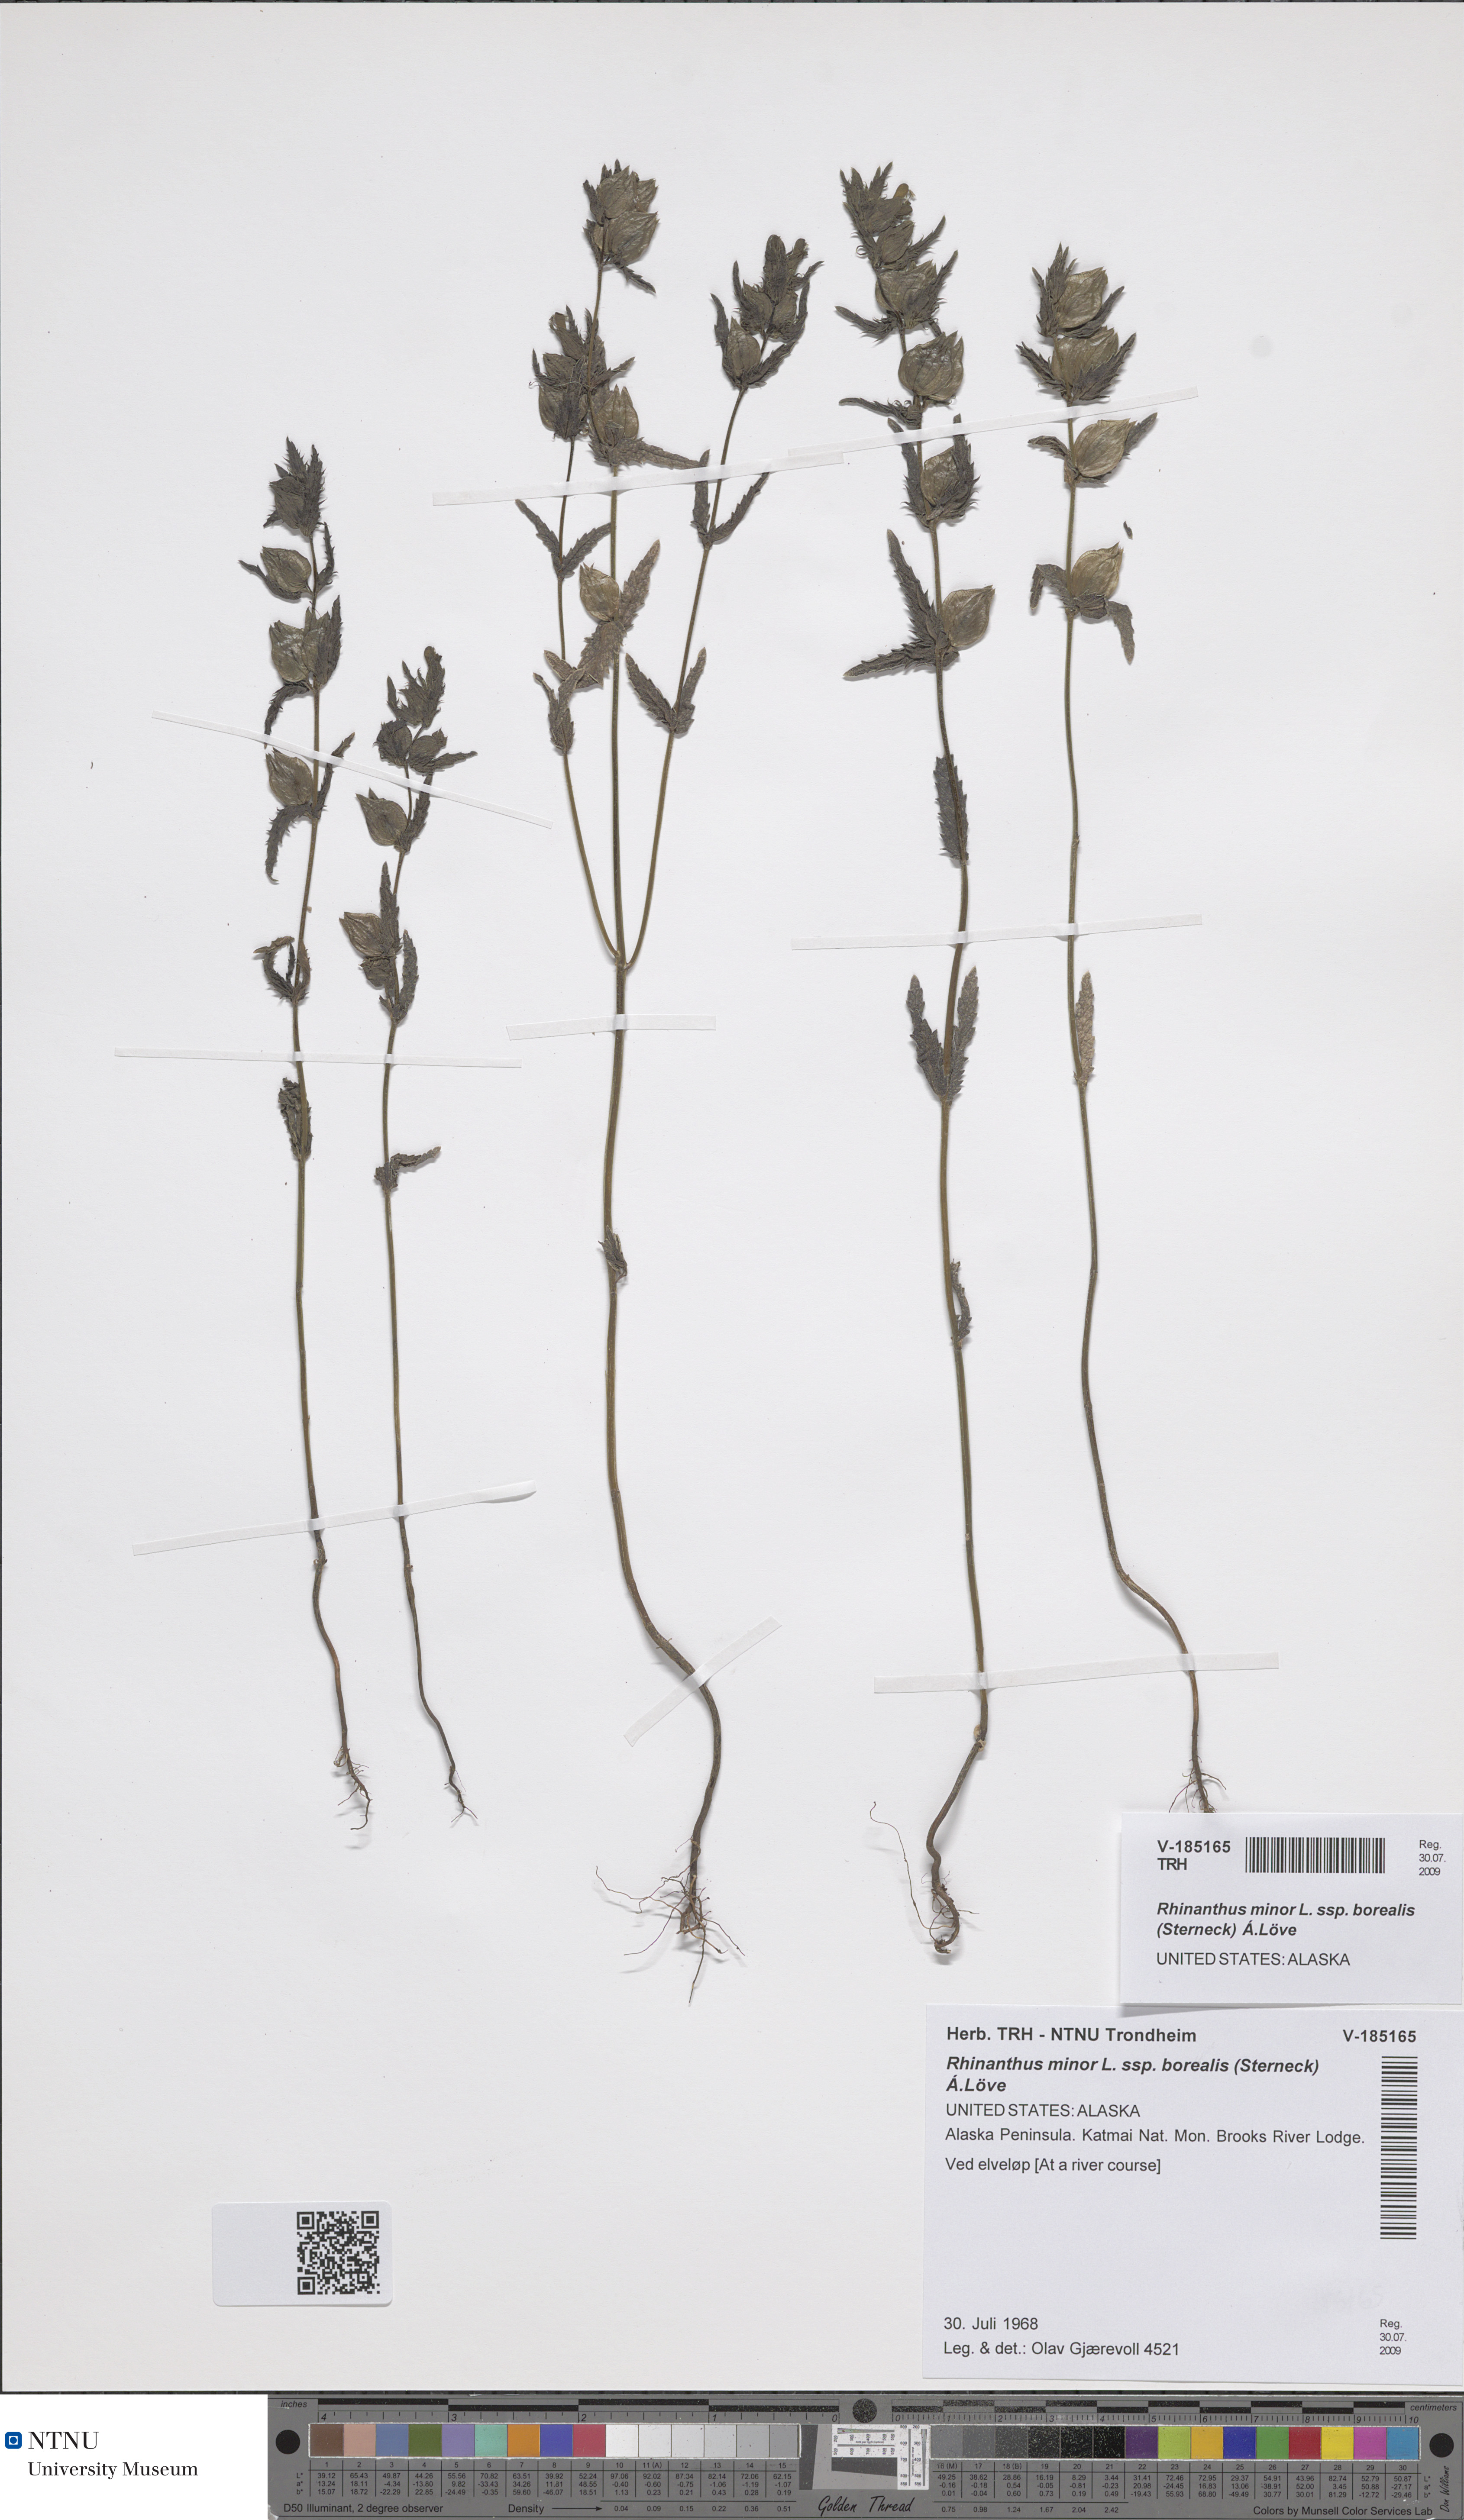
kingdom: Plantae
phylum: Tracheophyta
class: Magnoliopsida
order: Lamiales
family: Orobanchaceae
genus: Rhinanthus
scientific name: Rhinanthus groenlandicus
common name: Little yellow rattle
